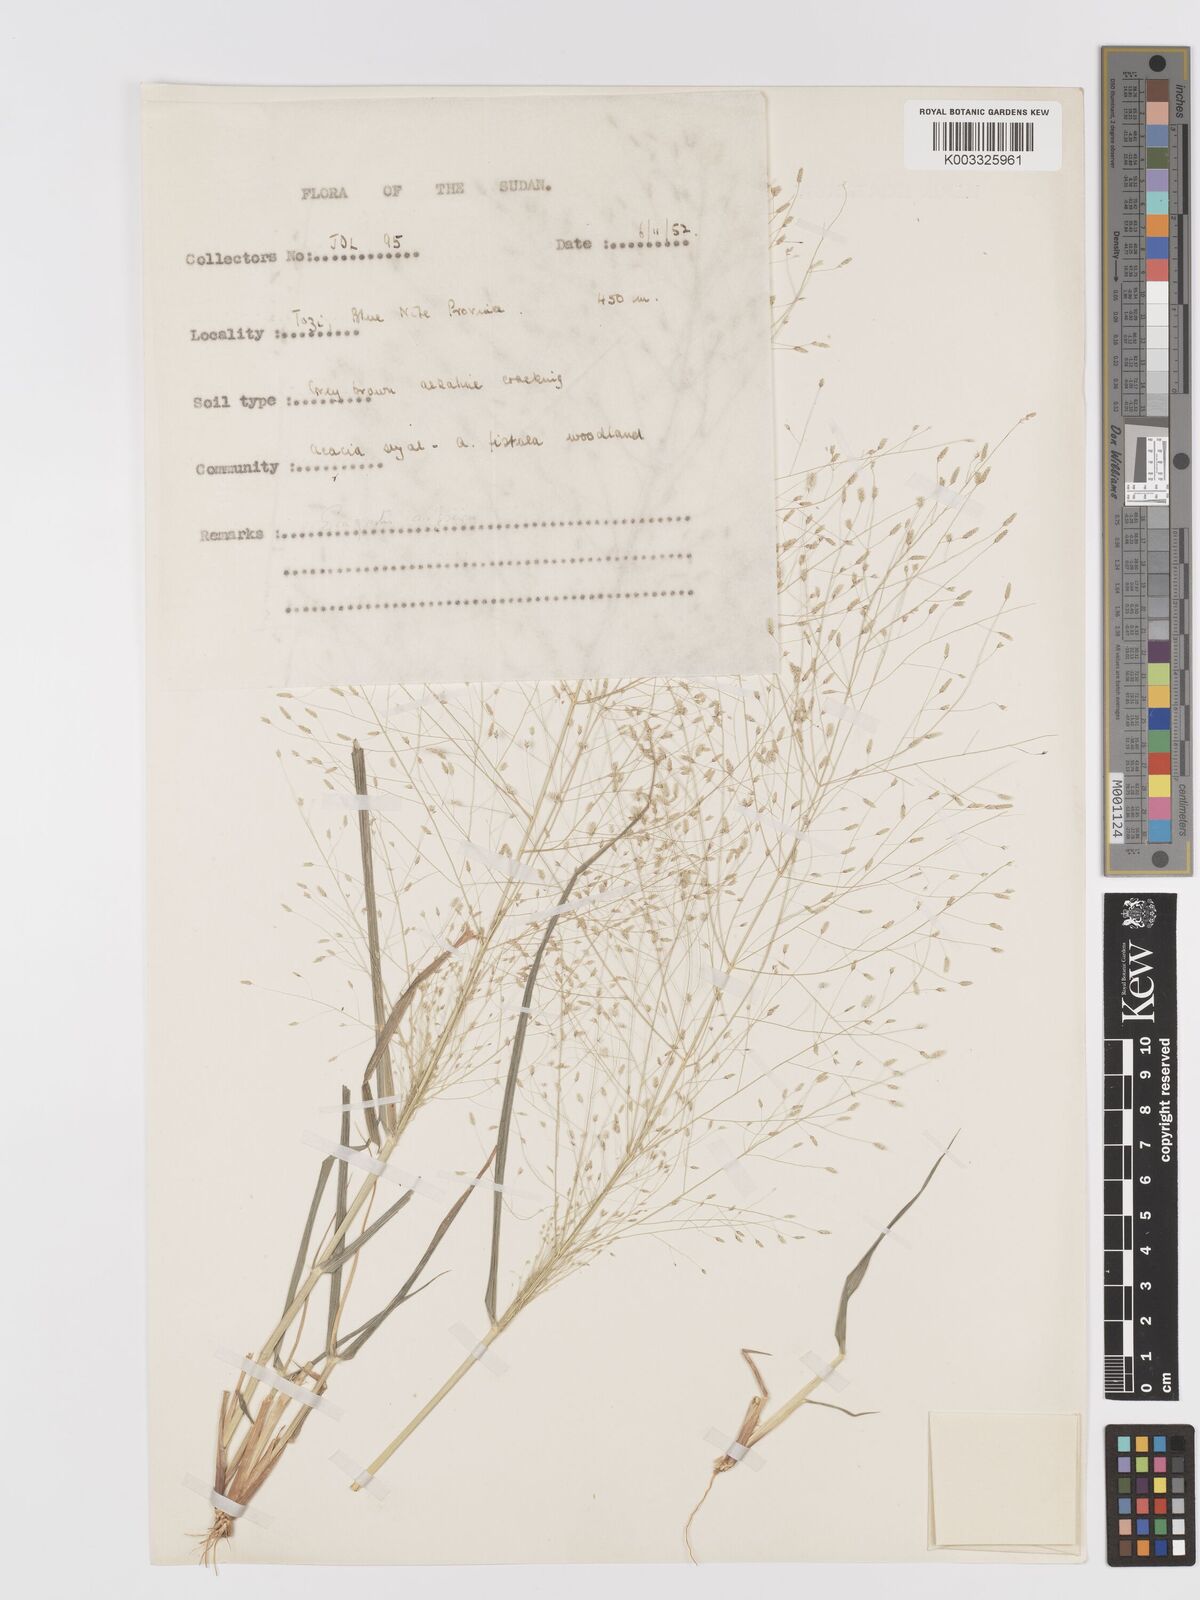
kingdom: Plantae
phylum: Tracheophyta
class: Liliopsida
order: Poales
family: Poaceae
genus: Eragrostis
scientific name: Eragrostis aspera
